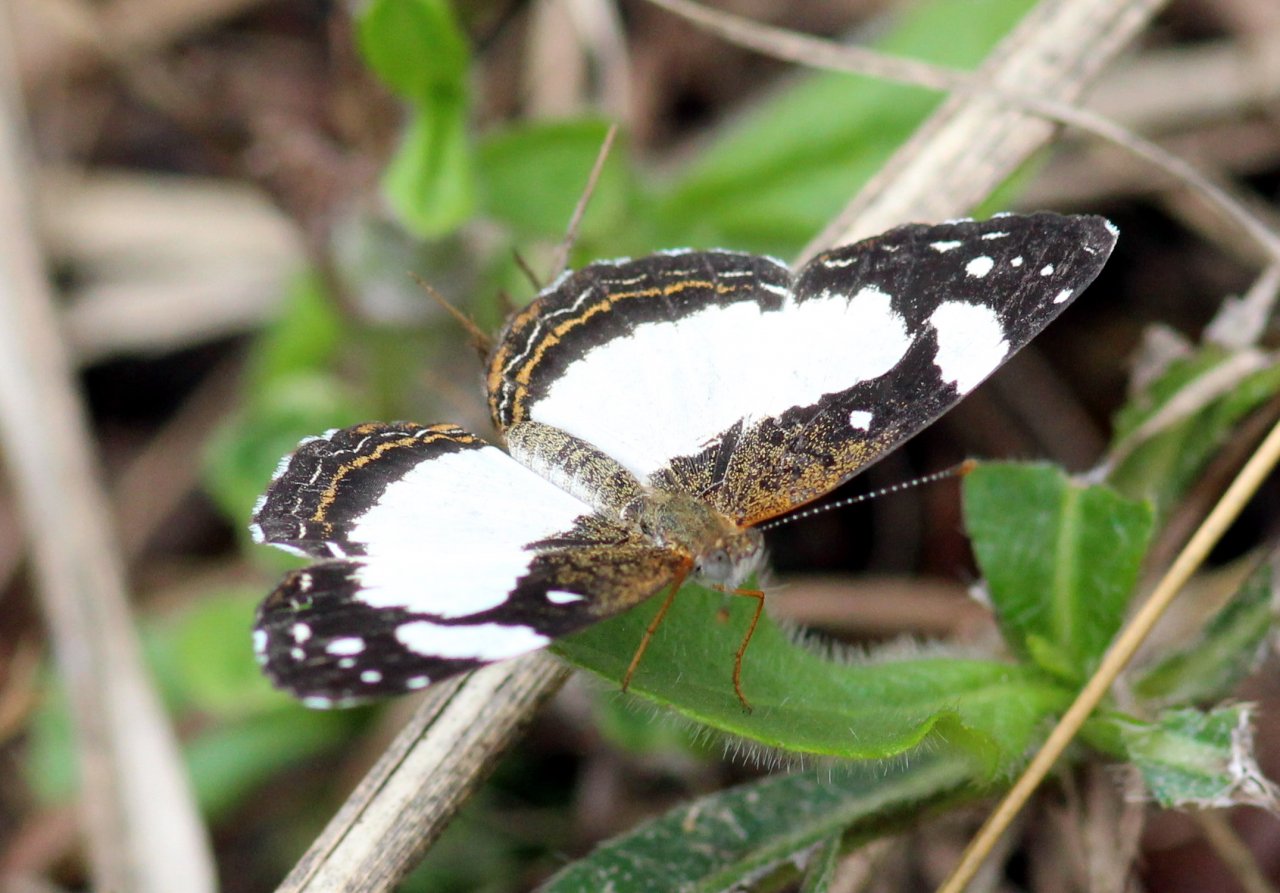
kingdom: Animalia
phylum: Arthropoda
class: Insecta
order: Lepidoptera
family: Nymphalidae
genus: Janatella
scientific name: Janatella leucodesma
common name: Whitened Crescent
